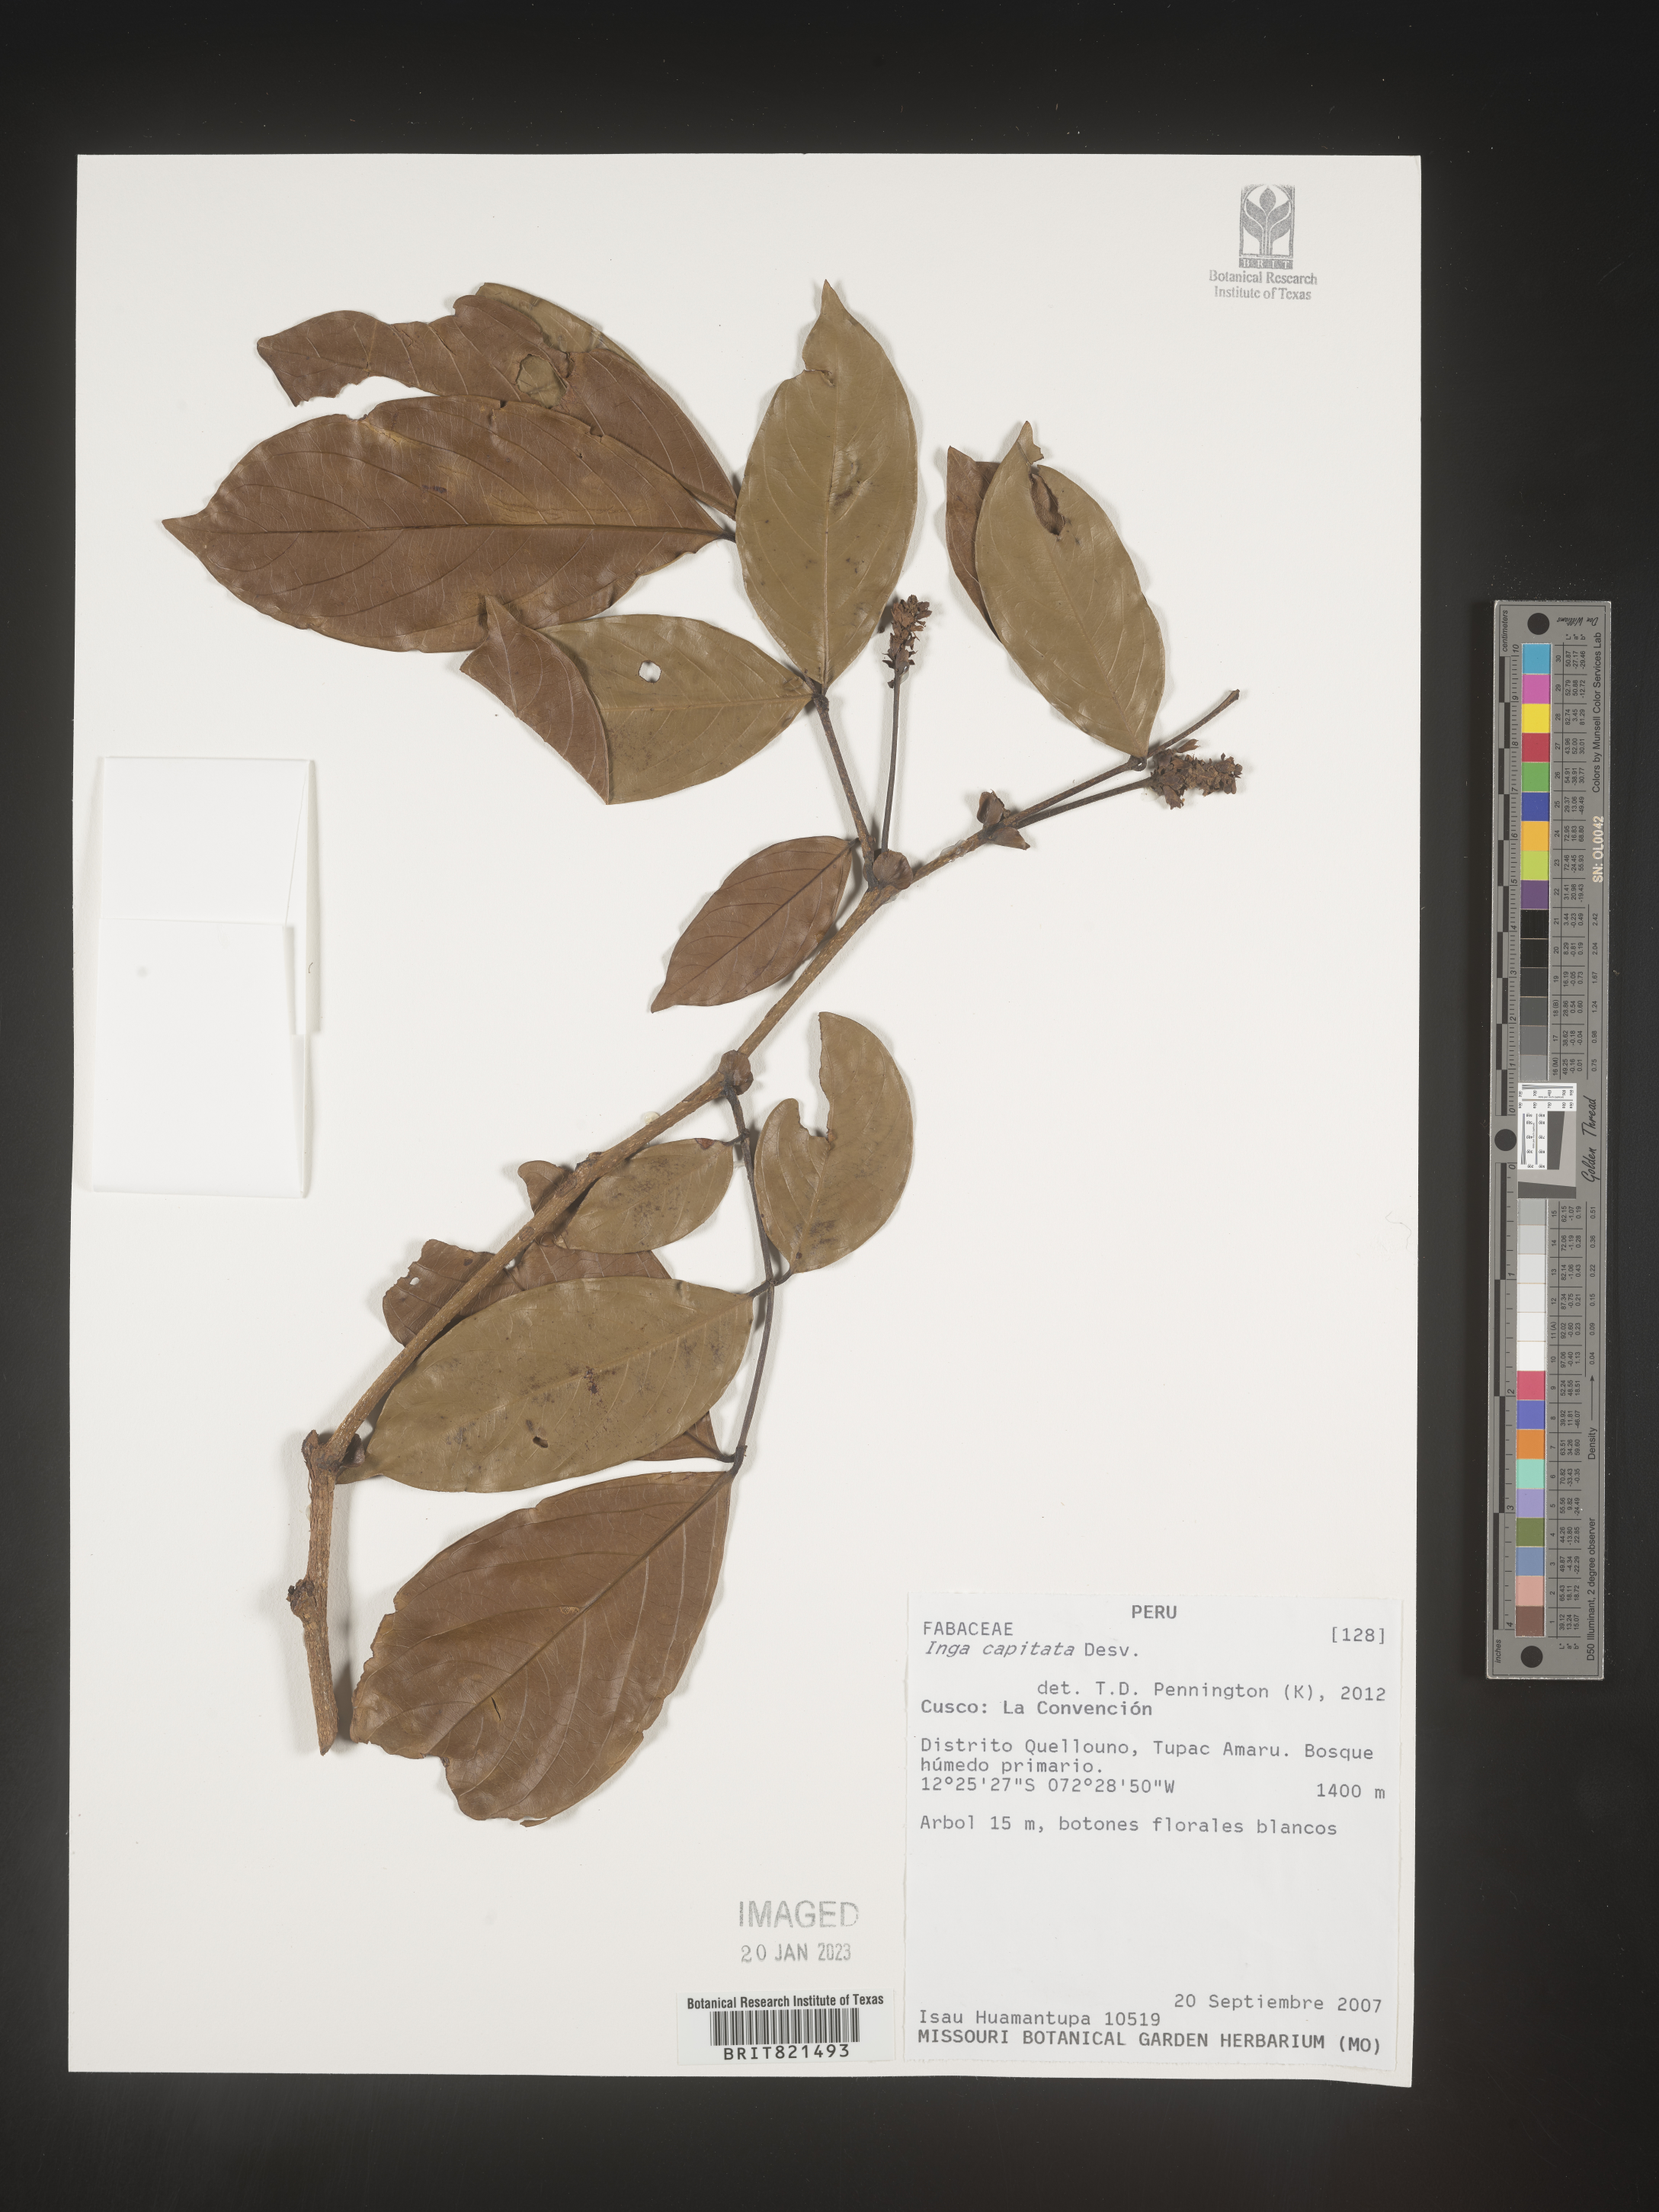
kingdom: Plantae
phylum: Tracheophyta
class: Magnoliopsida
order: Fabales
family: Fabaceae
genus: Inga
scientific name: Inga
